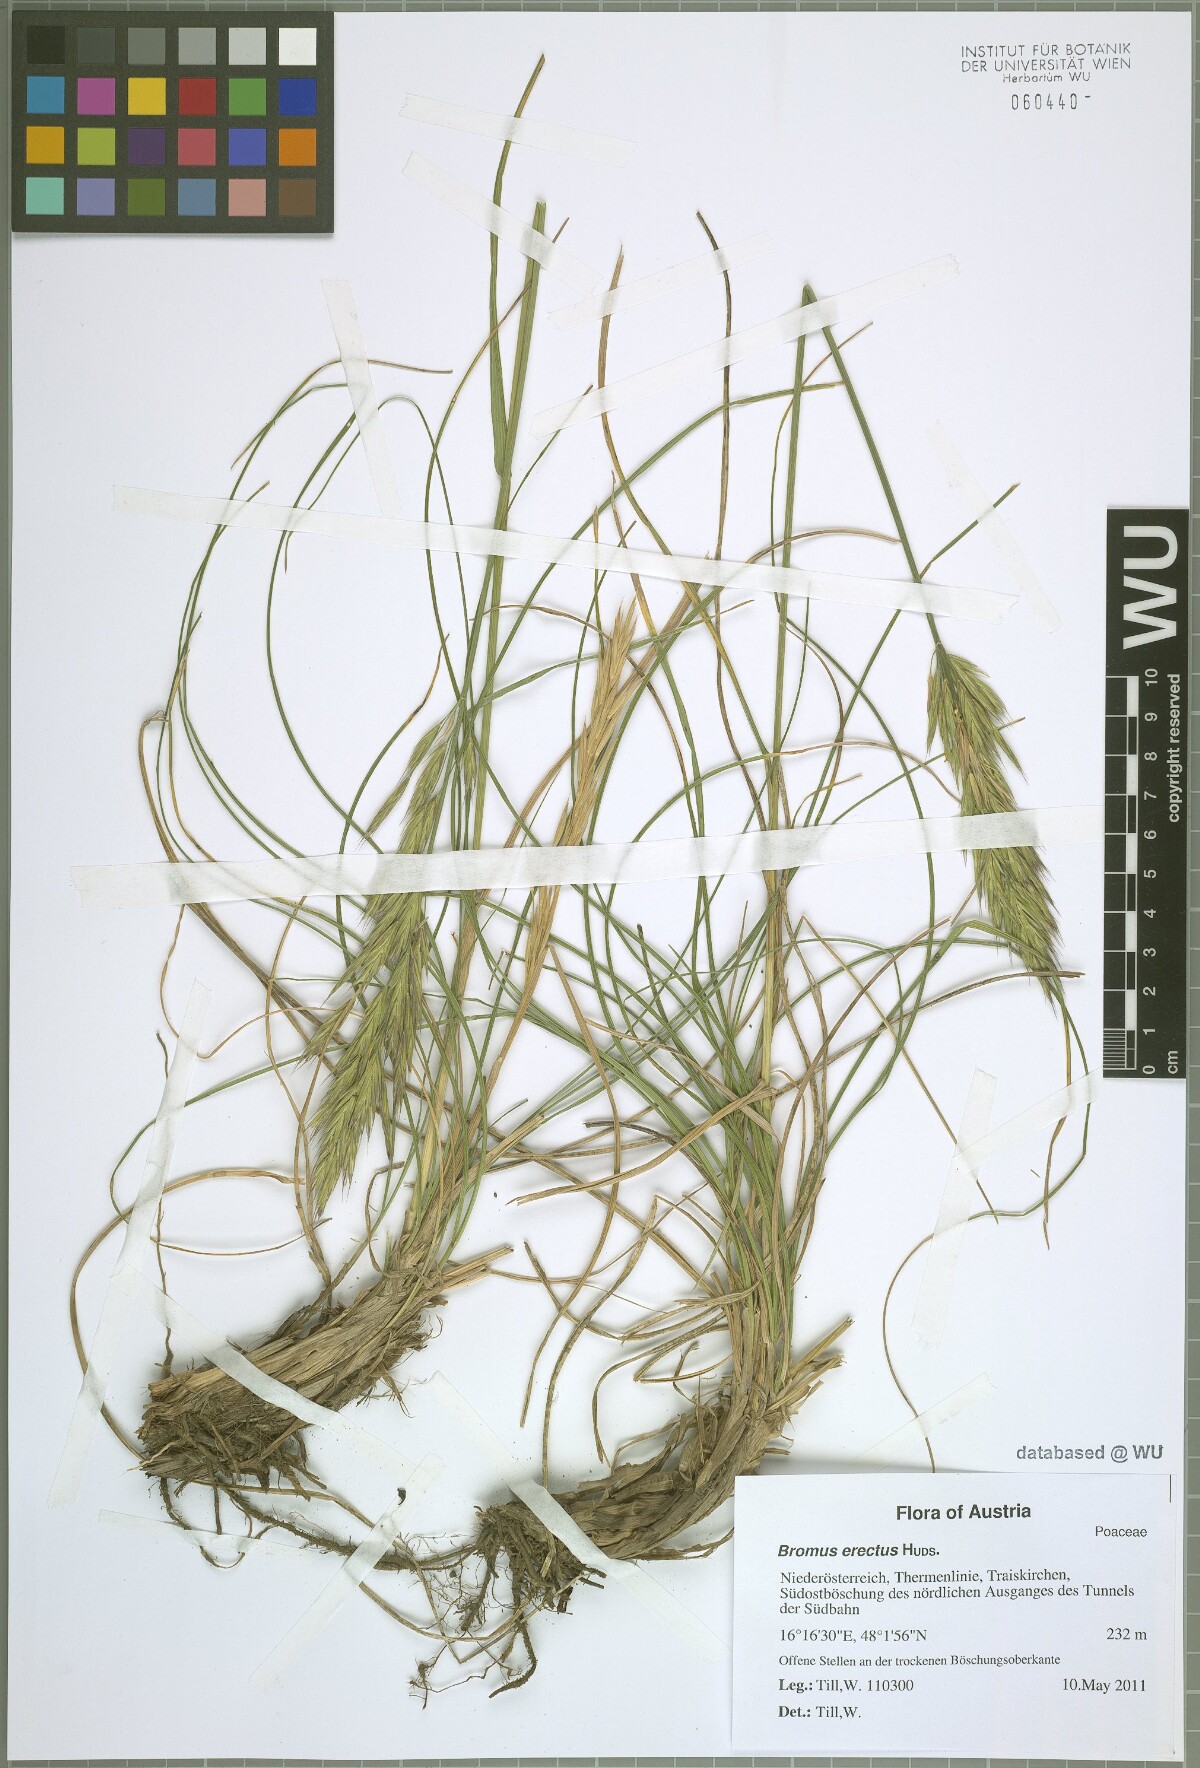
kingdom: Plantae
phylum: Tracheophyta
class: Liliopsida
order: Poales
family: Poaceae
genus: Bromus
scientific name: Bromus erectus
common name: Erect brome
